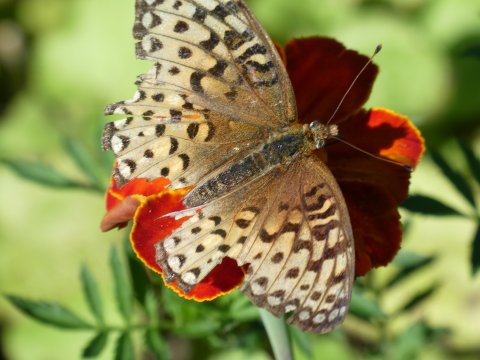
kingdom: Animalia
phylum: Arthropoda
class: Insecta
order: Lepidoptera
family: Nymphalidae
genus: Speyeria
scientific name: Speyeria atlantis
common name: Atlantis Fritillary
